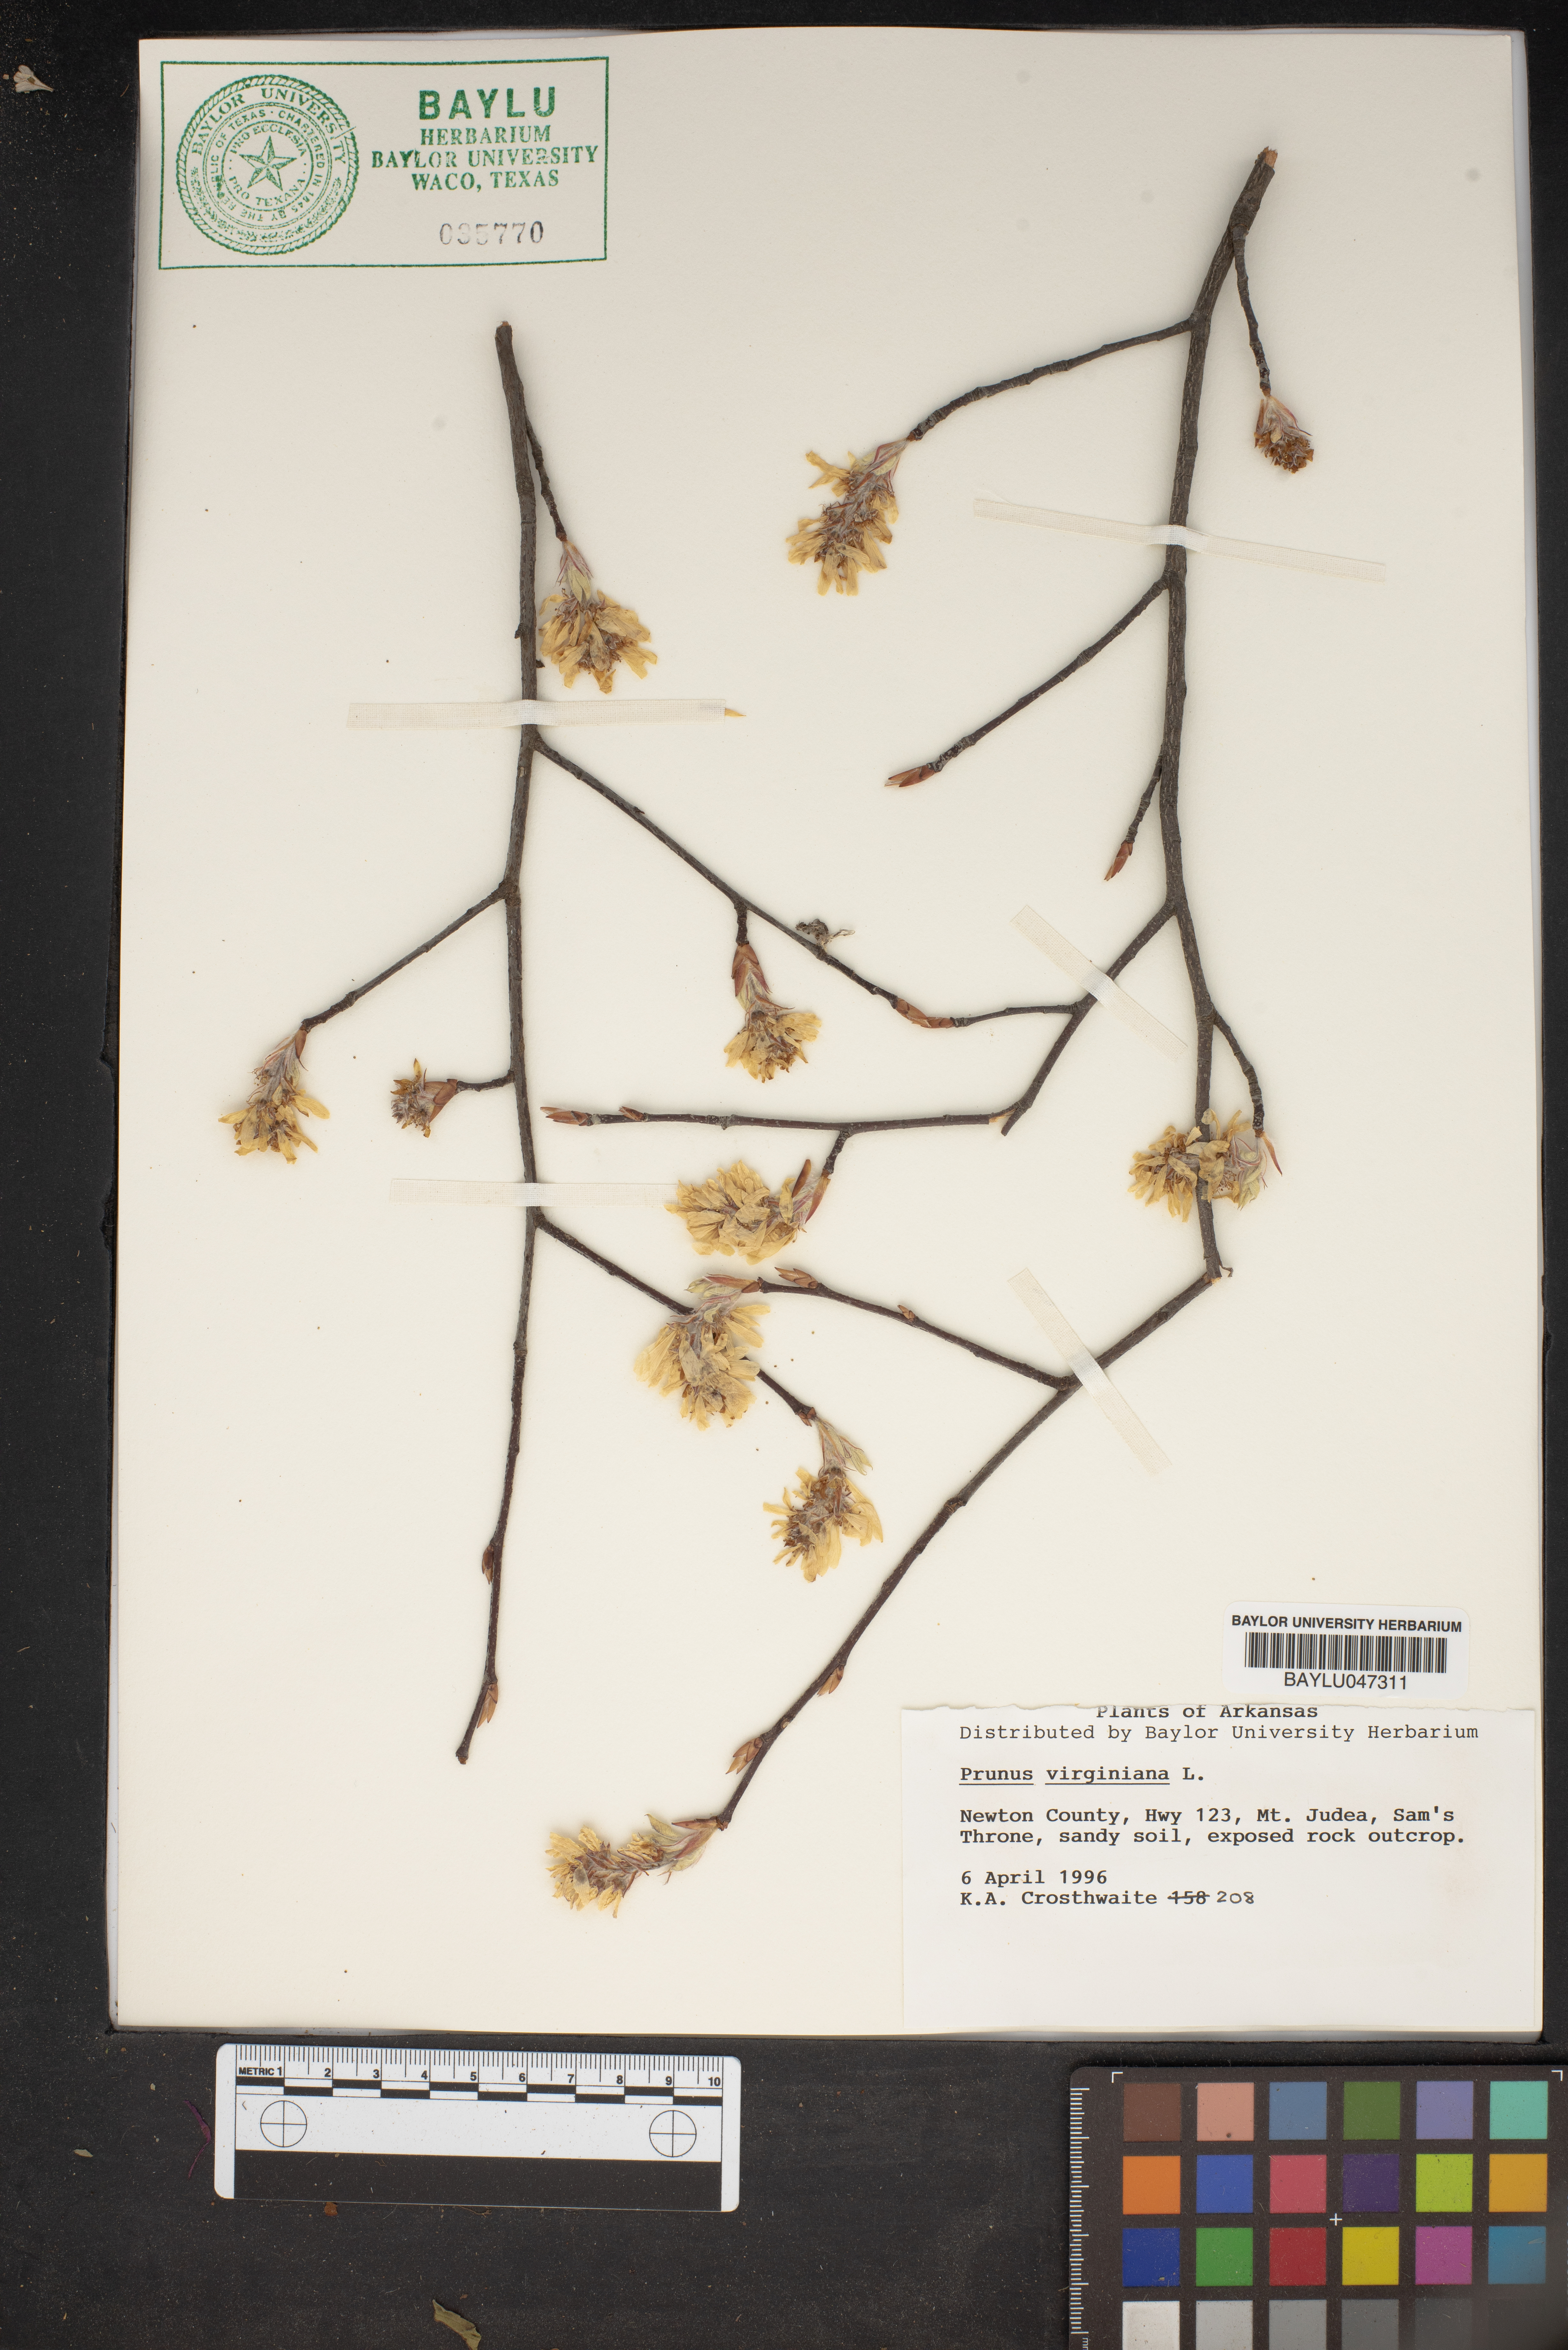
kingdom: Plantae
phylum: Tracheophyta
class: Magnoliopsida
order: Rosales
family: Rosaceae
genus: Prunus
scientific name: Prunus virginiana
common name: Chokecherry
